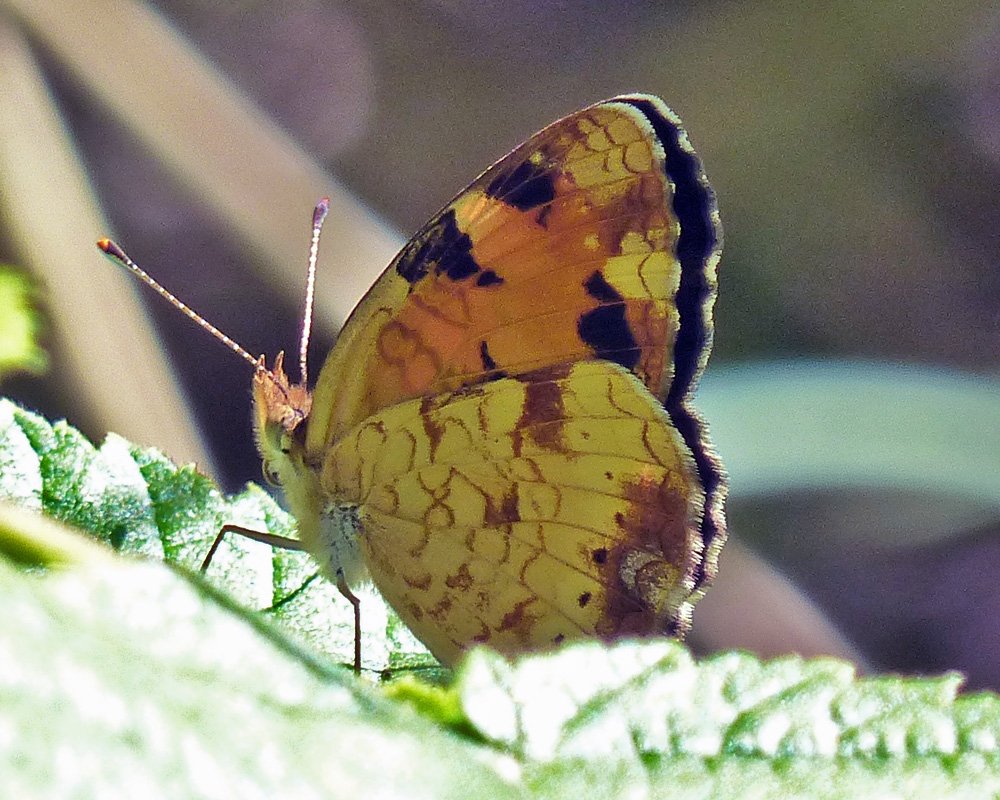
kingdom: Animalia
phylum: Arthropoda
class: Insecta
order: Lepidoptera
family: Nymphalidae
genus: Phyciodes
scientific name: Phyciodes tharos
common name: Northern Crescent
